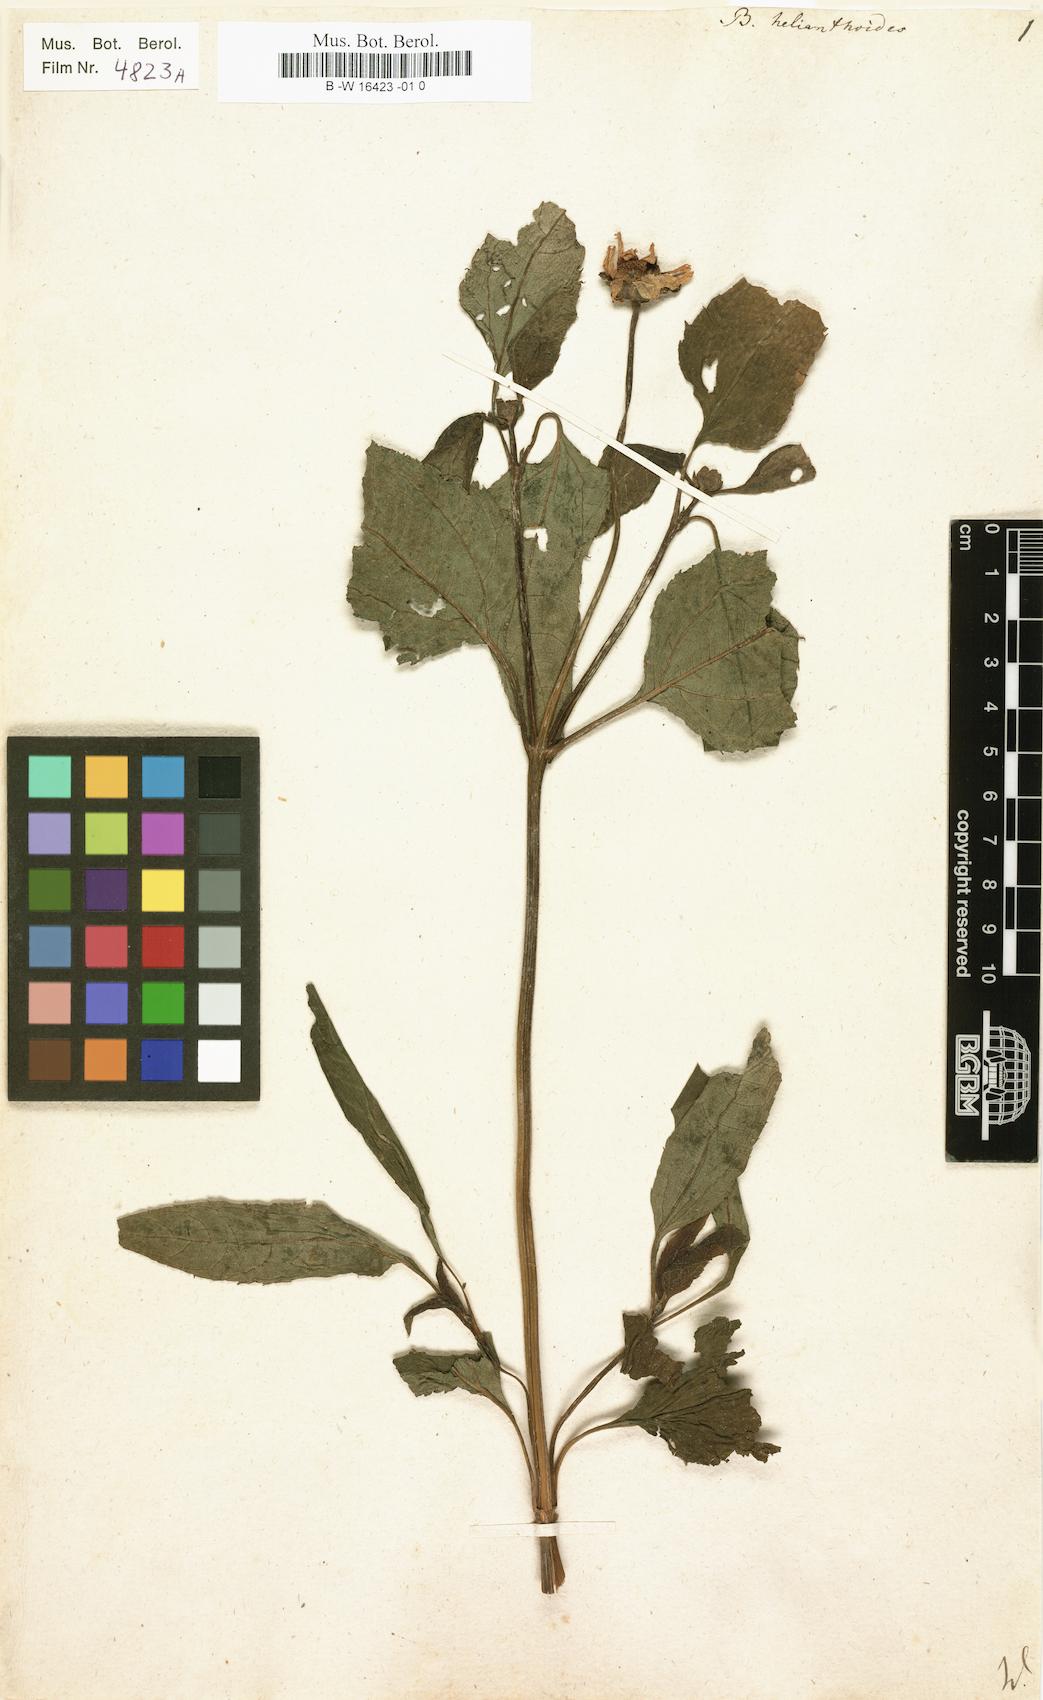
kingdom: Plantae
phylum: Tracheophyta
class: Magnoliopsida
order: Asterales
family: Asteraceae
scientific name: Asteraceae
